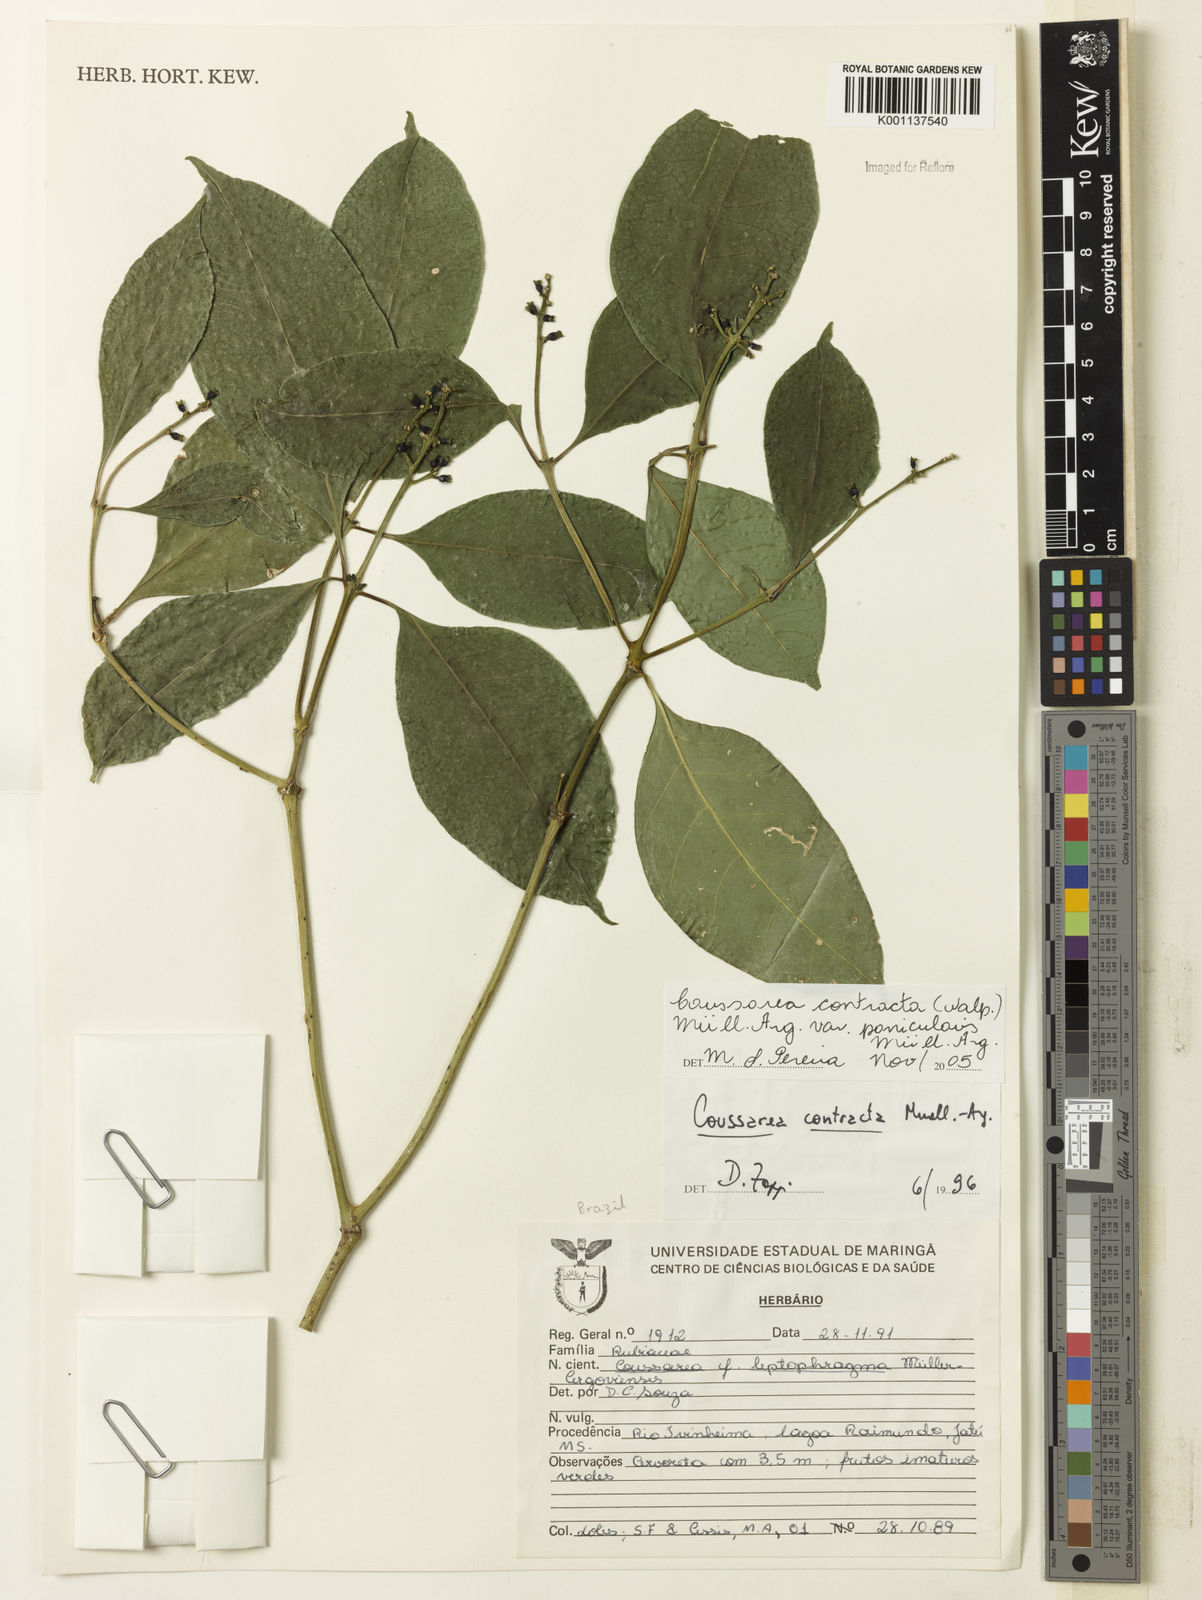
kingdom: Plantae
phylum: Tracheophyta
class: Magnoliopsida
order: Gentianales
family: Rubiaceae
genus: Coussarea
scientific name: Coussarea
